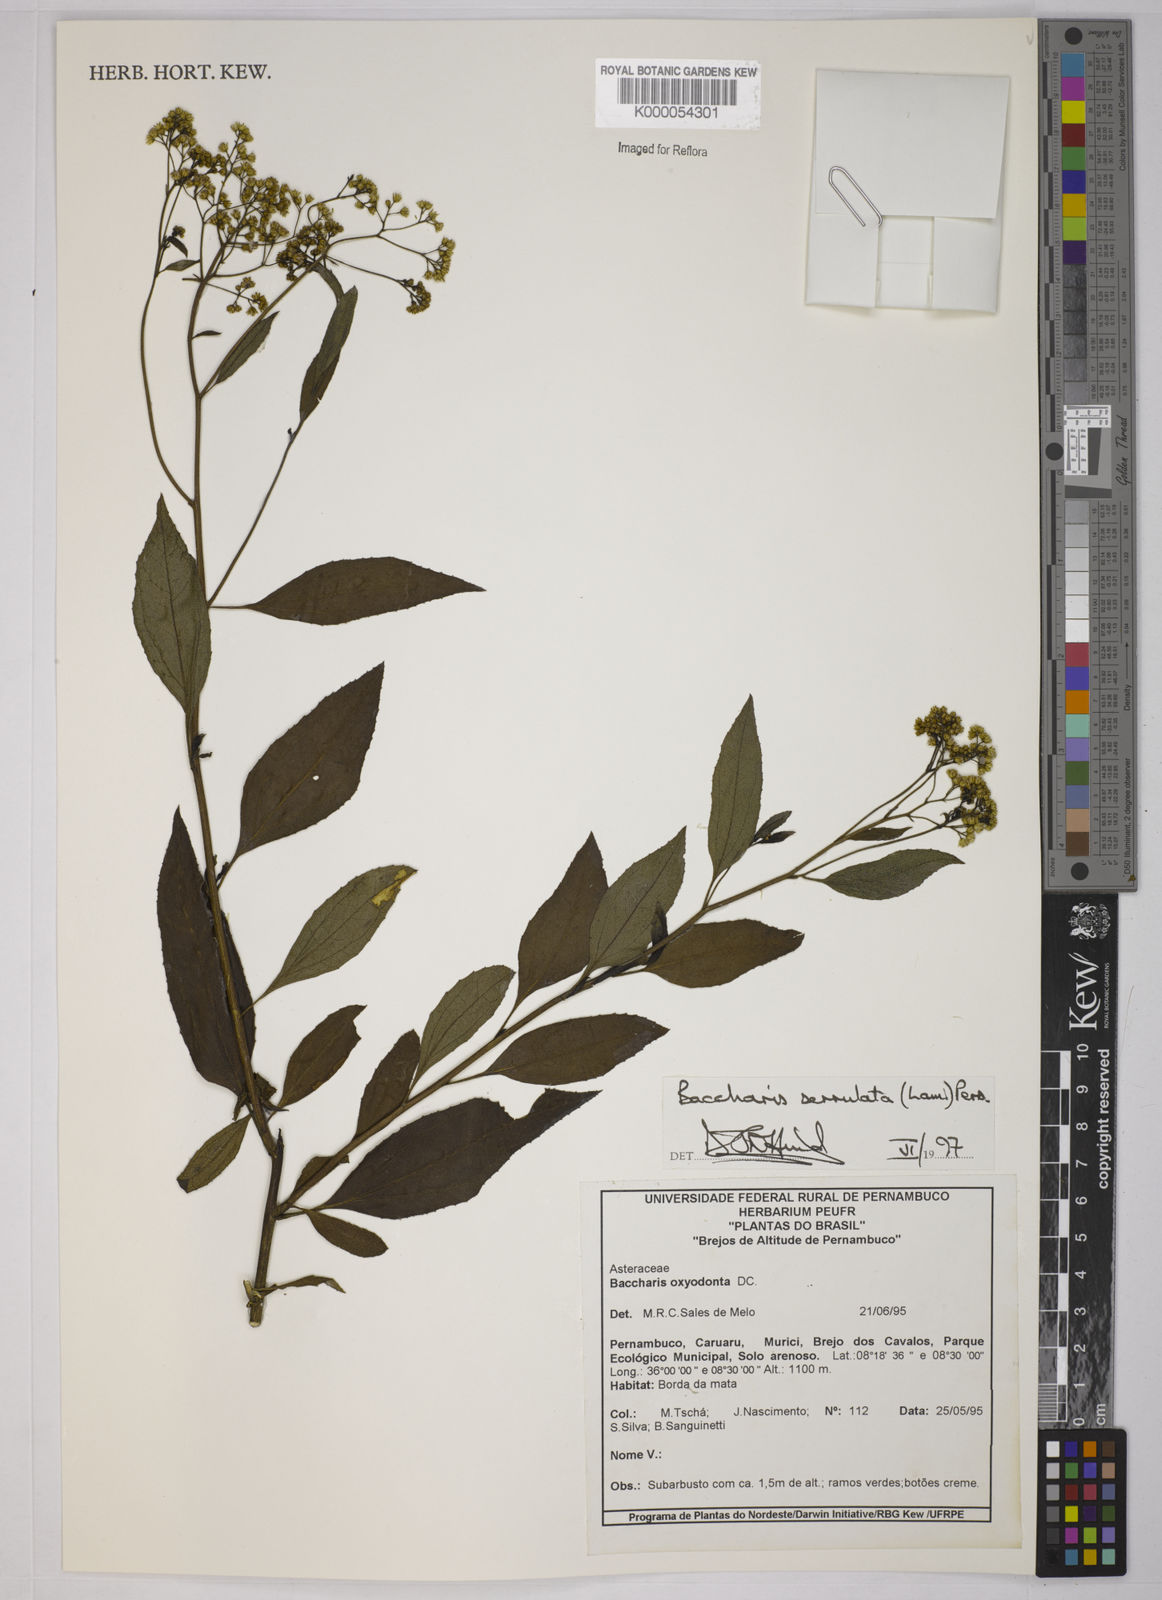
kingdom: Plantae
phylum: Tracheophyta
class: Magnoliopsida
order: Asterales
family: Asteraceae
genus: Baccharis
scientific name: Baccharis serrulata
